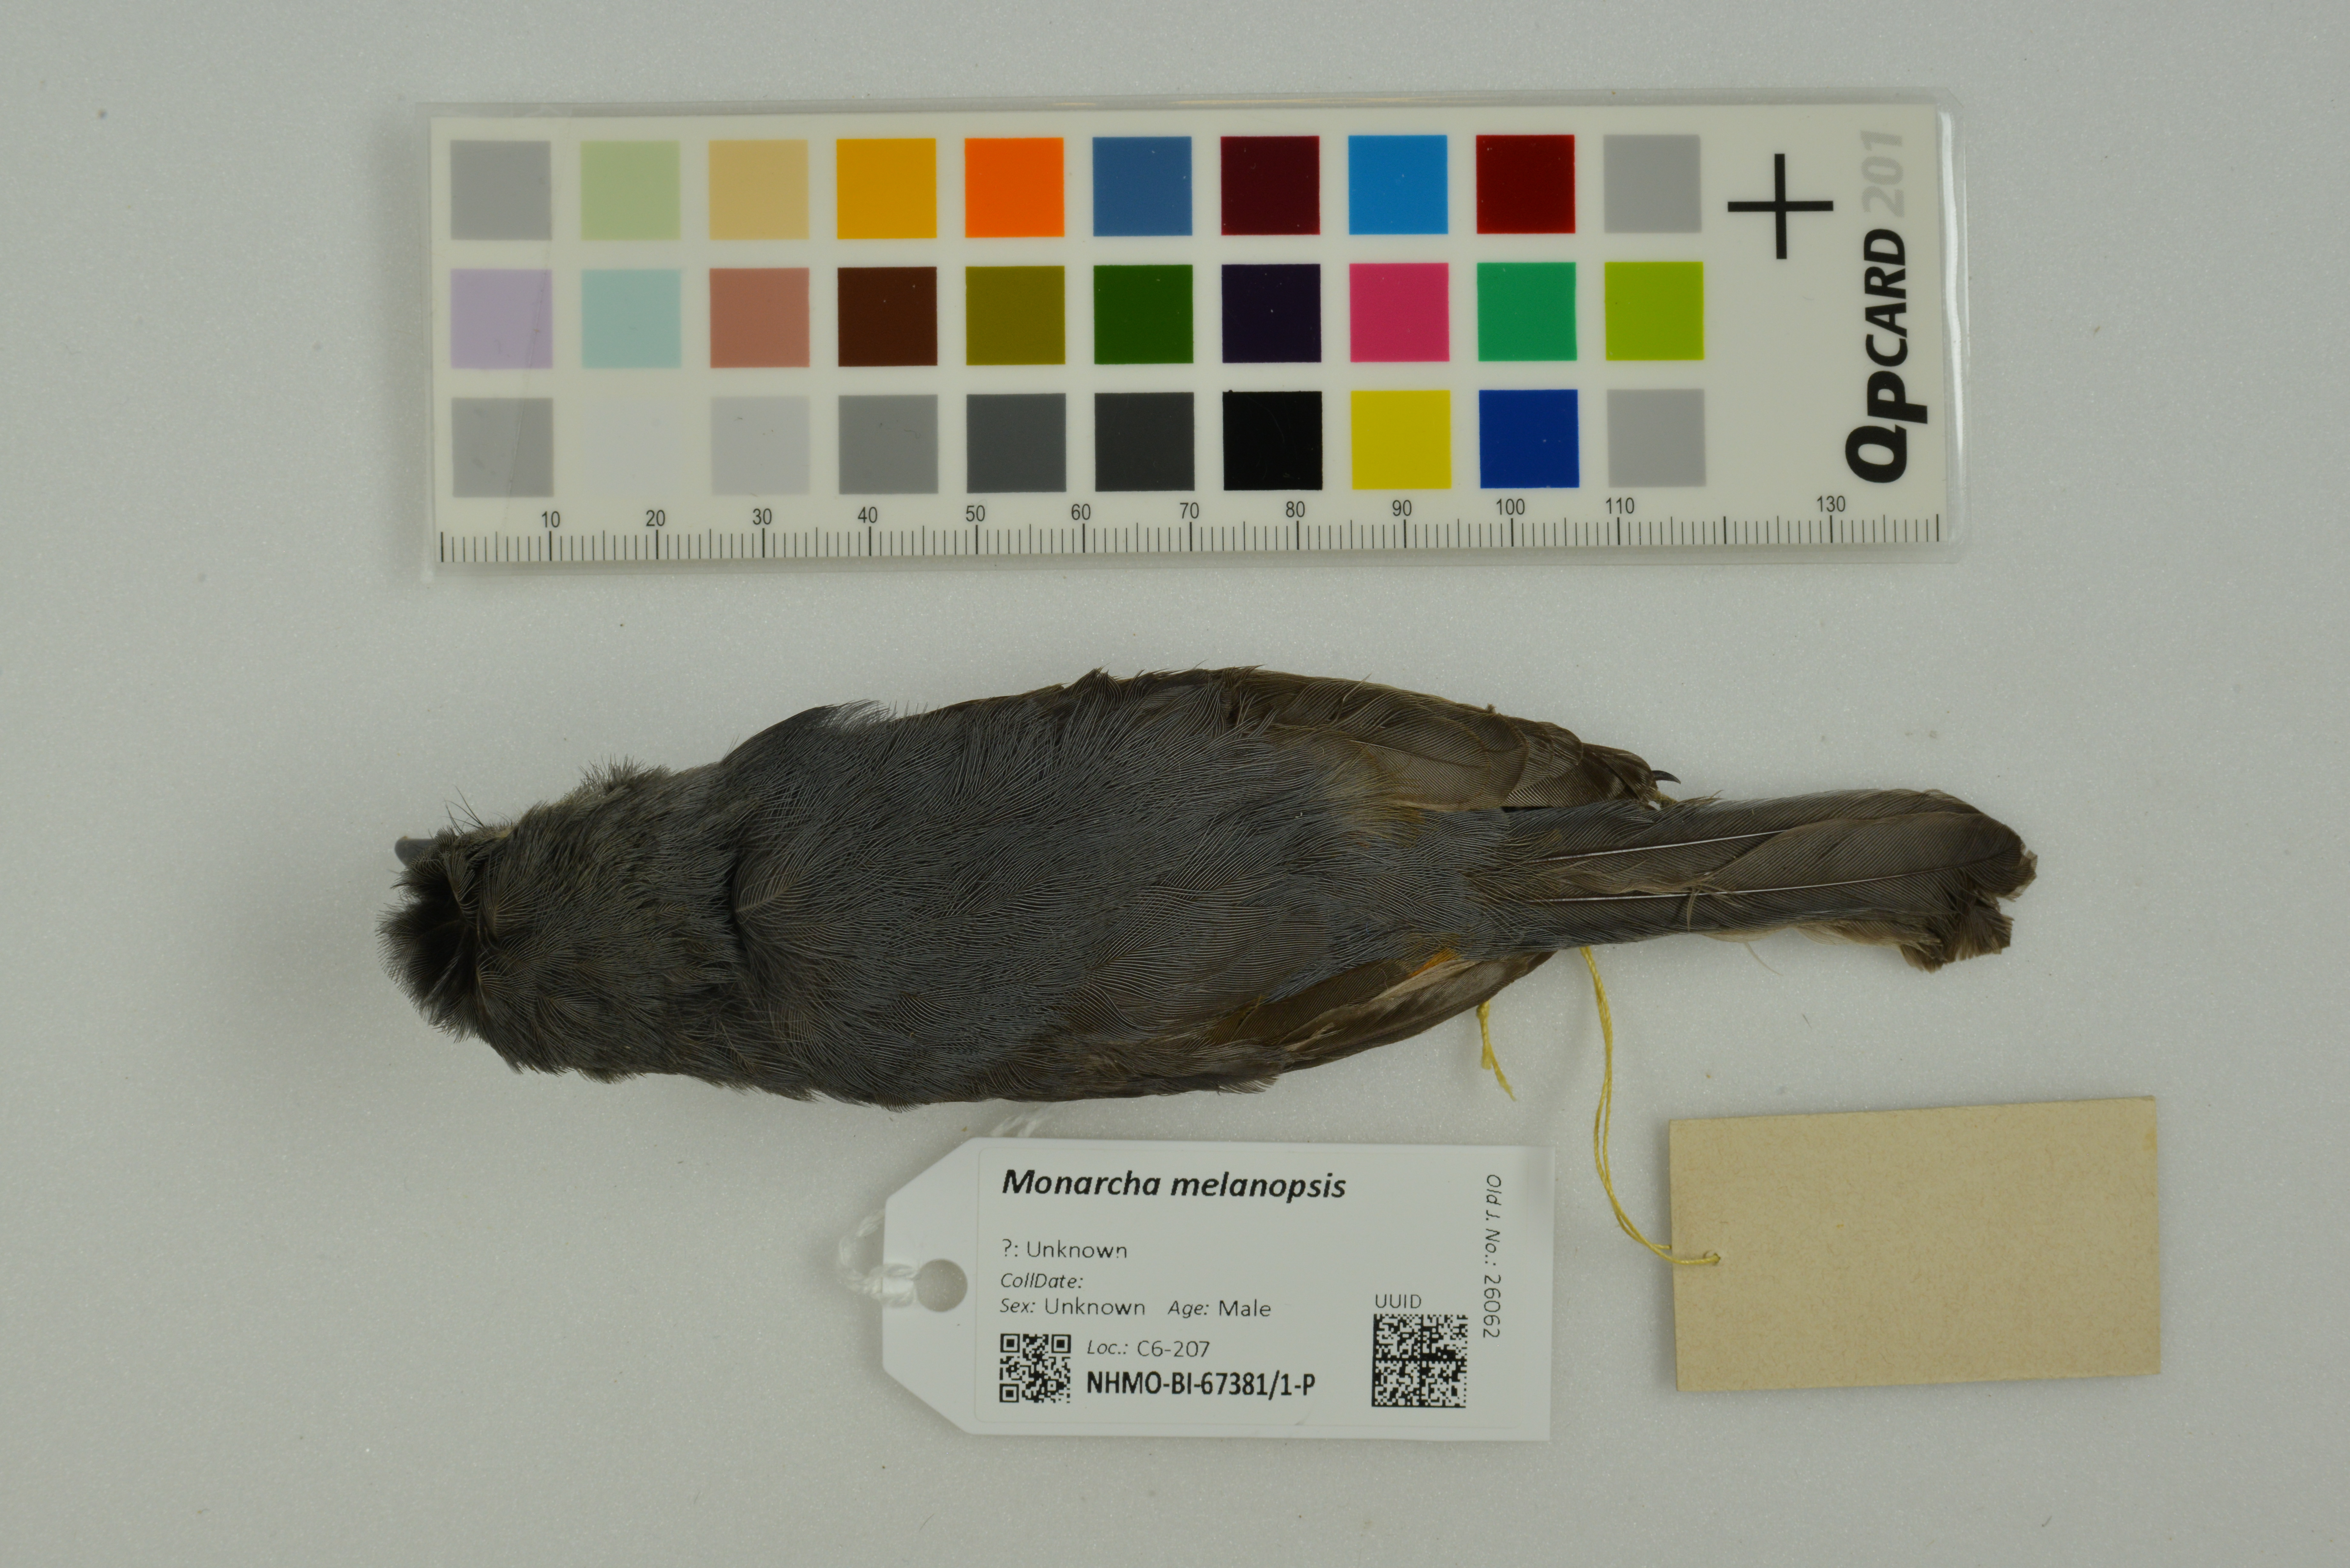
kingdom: Animalia
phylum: Chordata
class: Aves
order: Passeriformes
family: Monarchidae
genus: Monarcha
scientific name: Monarcha melanopsis
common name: Black-faced monarch
